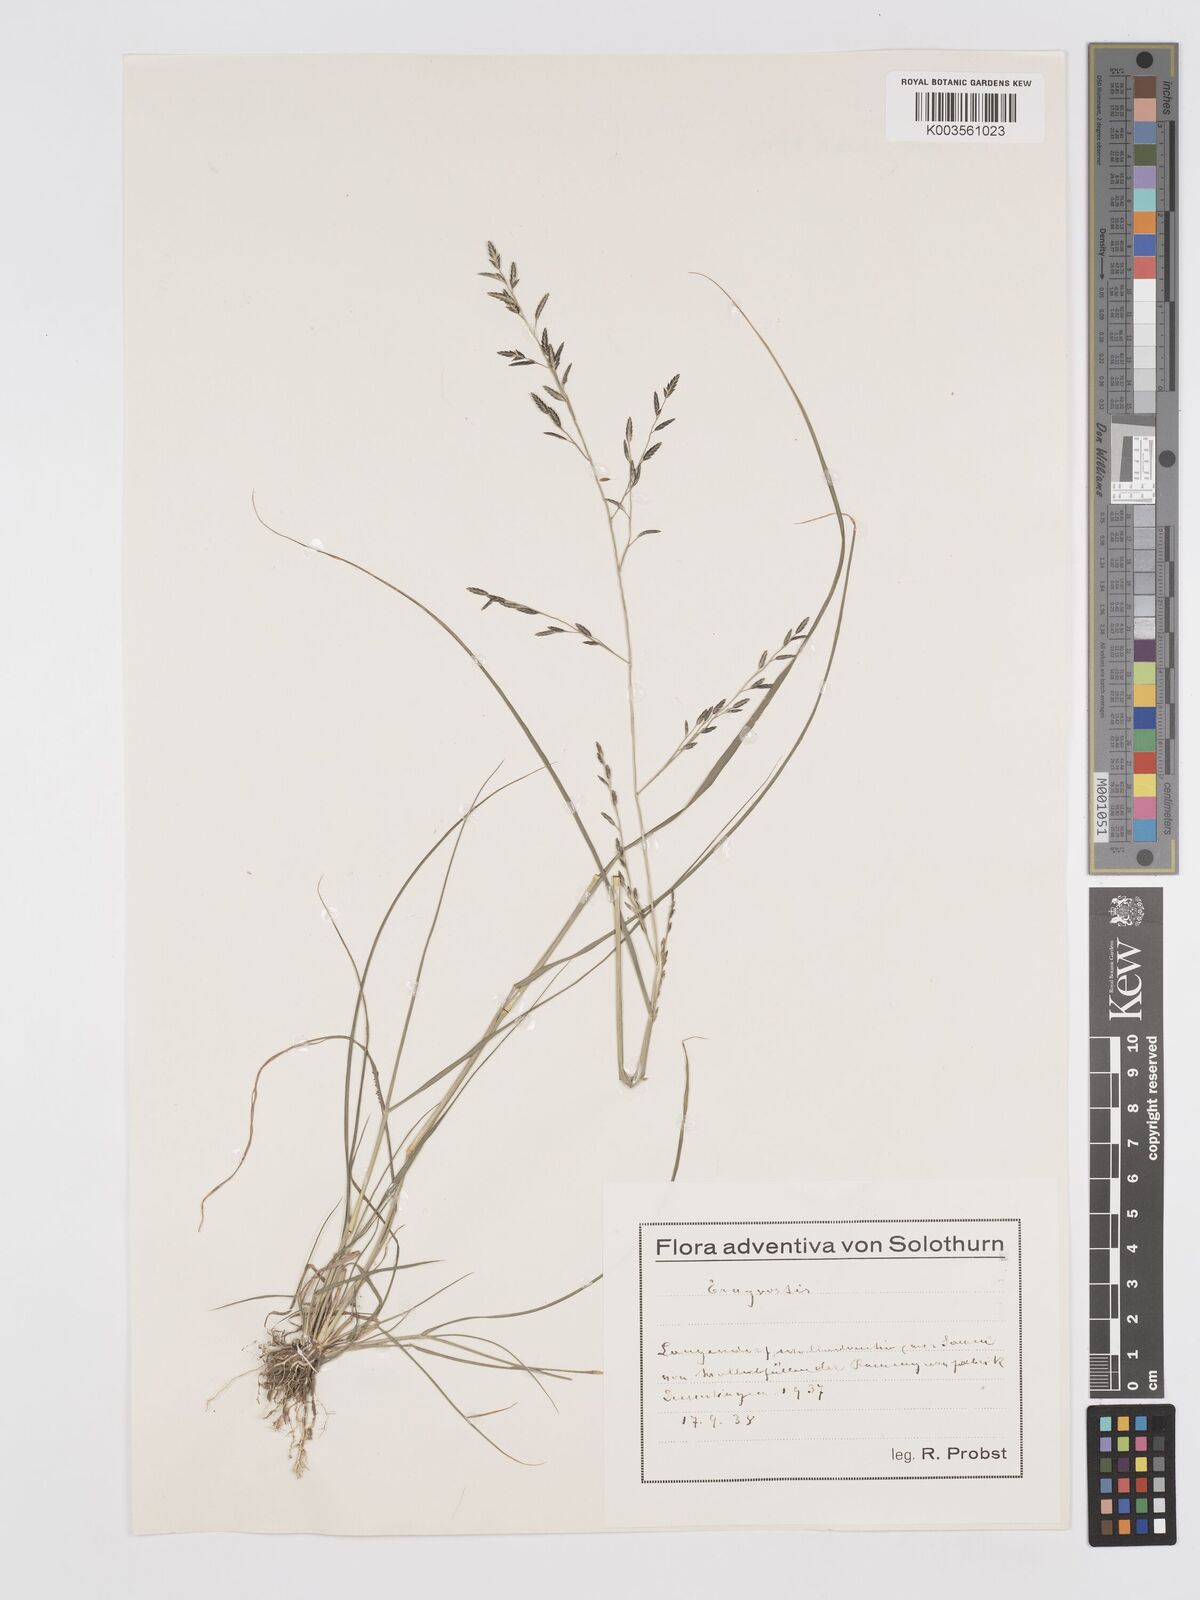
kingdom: Plantae
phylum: Tracheophyta
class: Liliopsida
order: Poales
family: Poaceae
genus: Eragrostis
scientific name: Eragrostis
